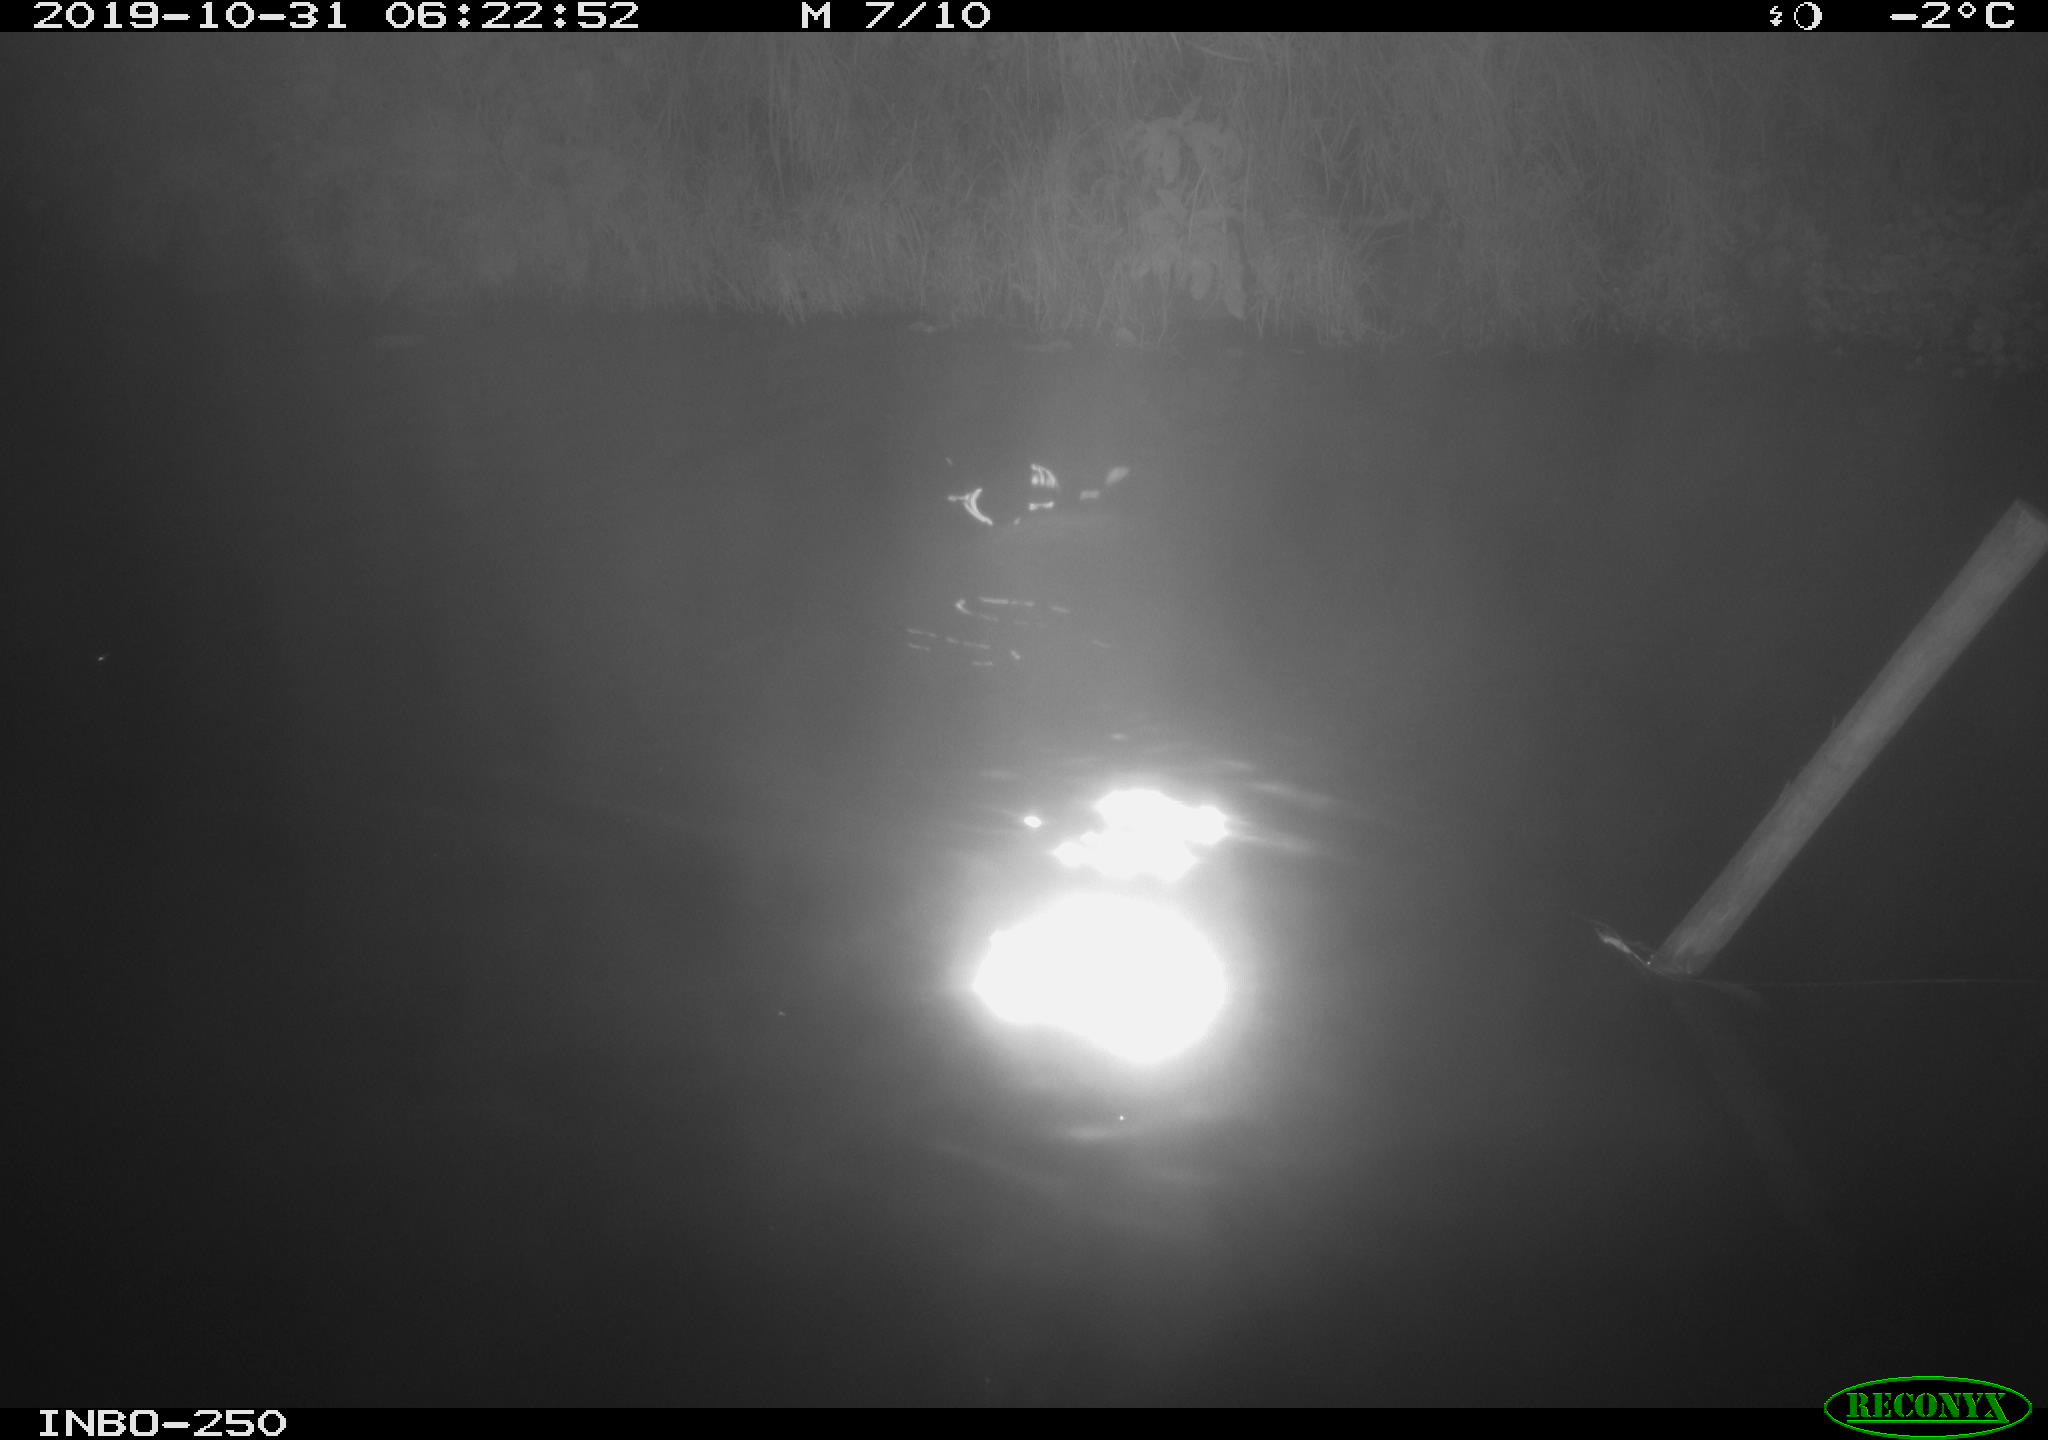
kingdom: Animalia
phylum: Chordata
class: Aves
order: Anseriformes
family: Anatidae
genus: Anas
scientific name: Anas platyrhynchos
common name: Mallard
